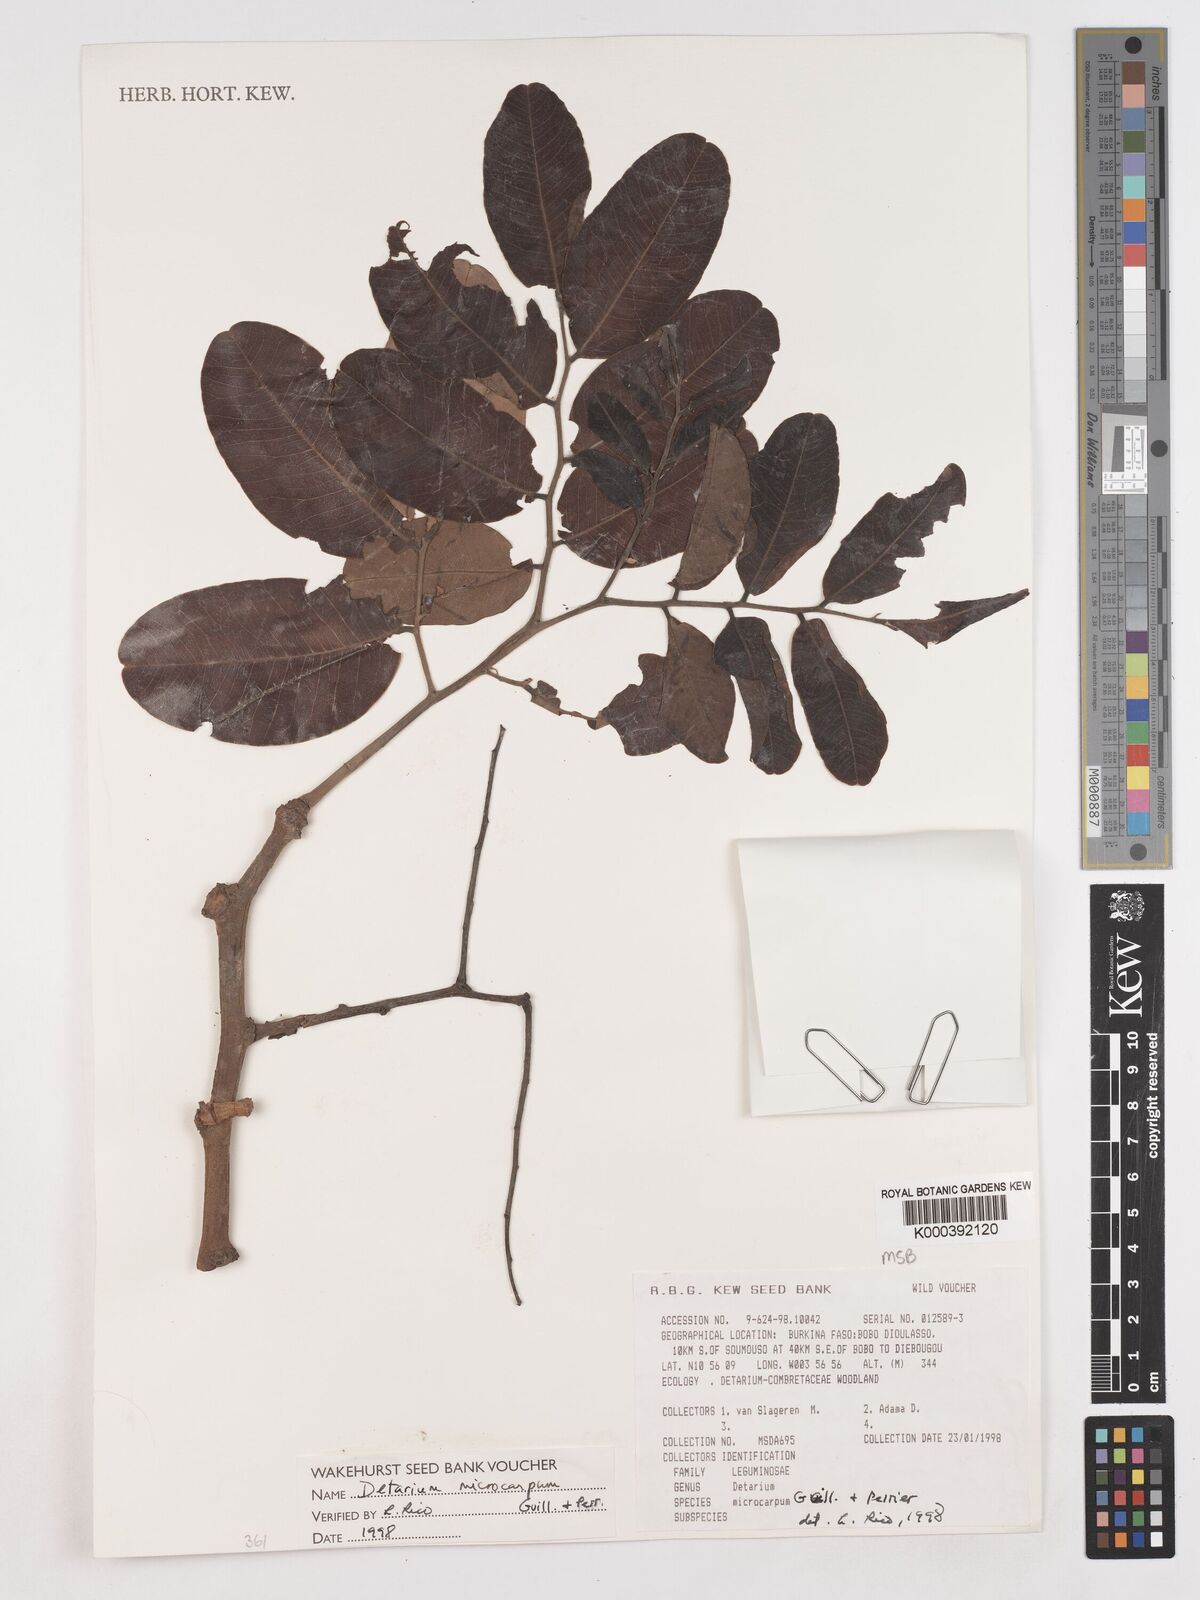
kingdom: Plantae
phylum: Tracheophyta
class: Magnoliopsida
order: Fabales
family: Fabaceae
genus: Detarium
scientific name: Detarium microcarpum
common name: Sweet dattock
